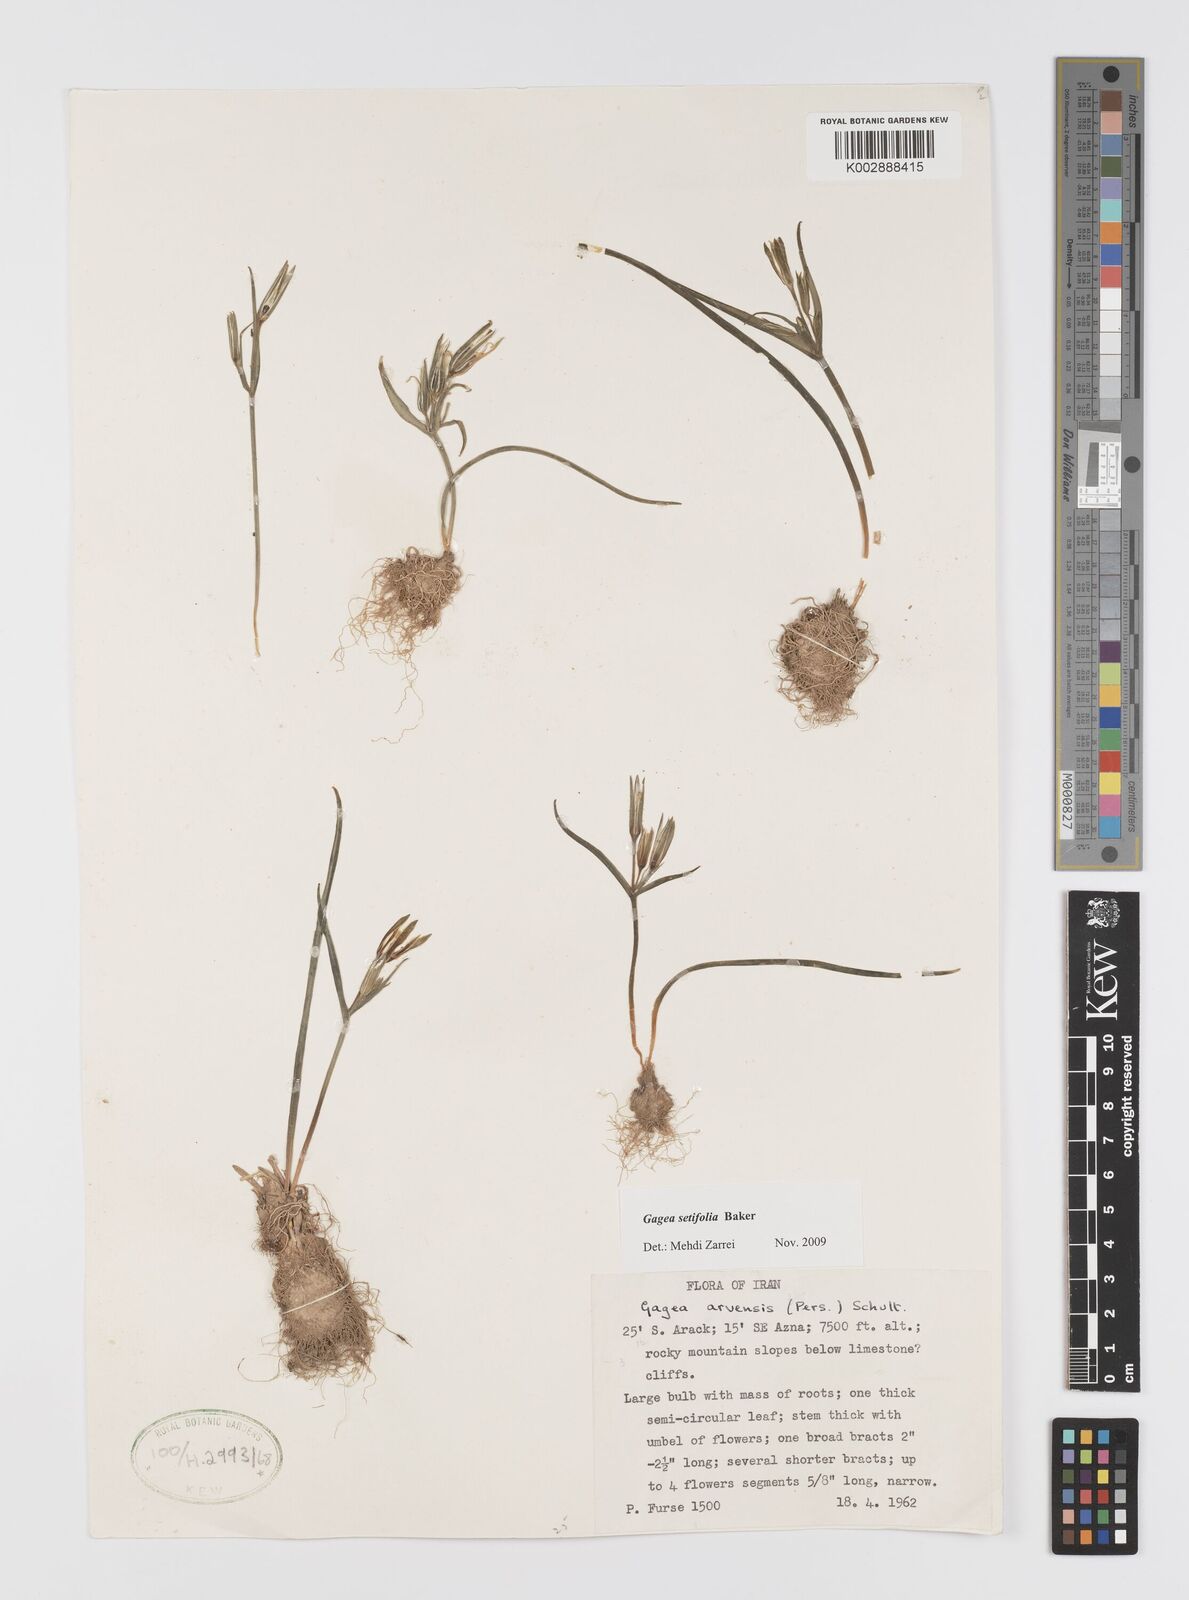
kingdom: Plantae
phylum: Tracheophyta
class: Liliopsida
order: Liliales
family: Liliaceae
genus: Gagea
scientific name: Gagea setifolia
